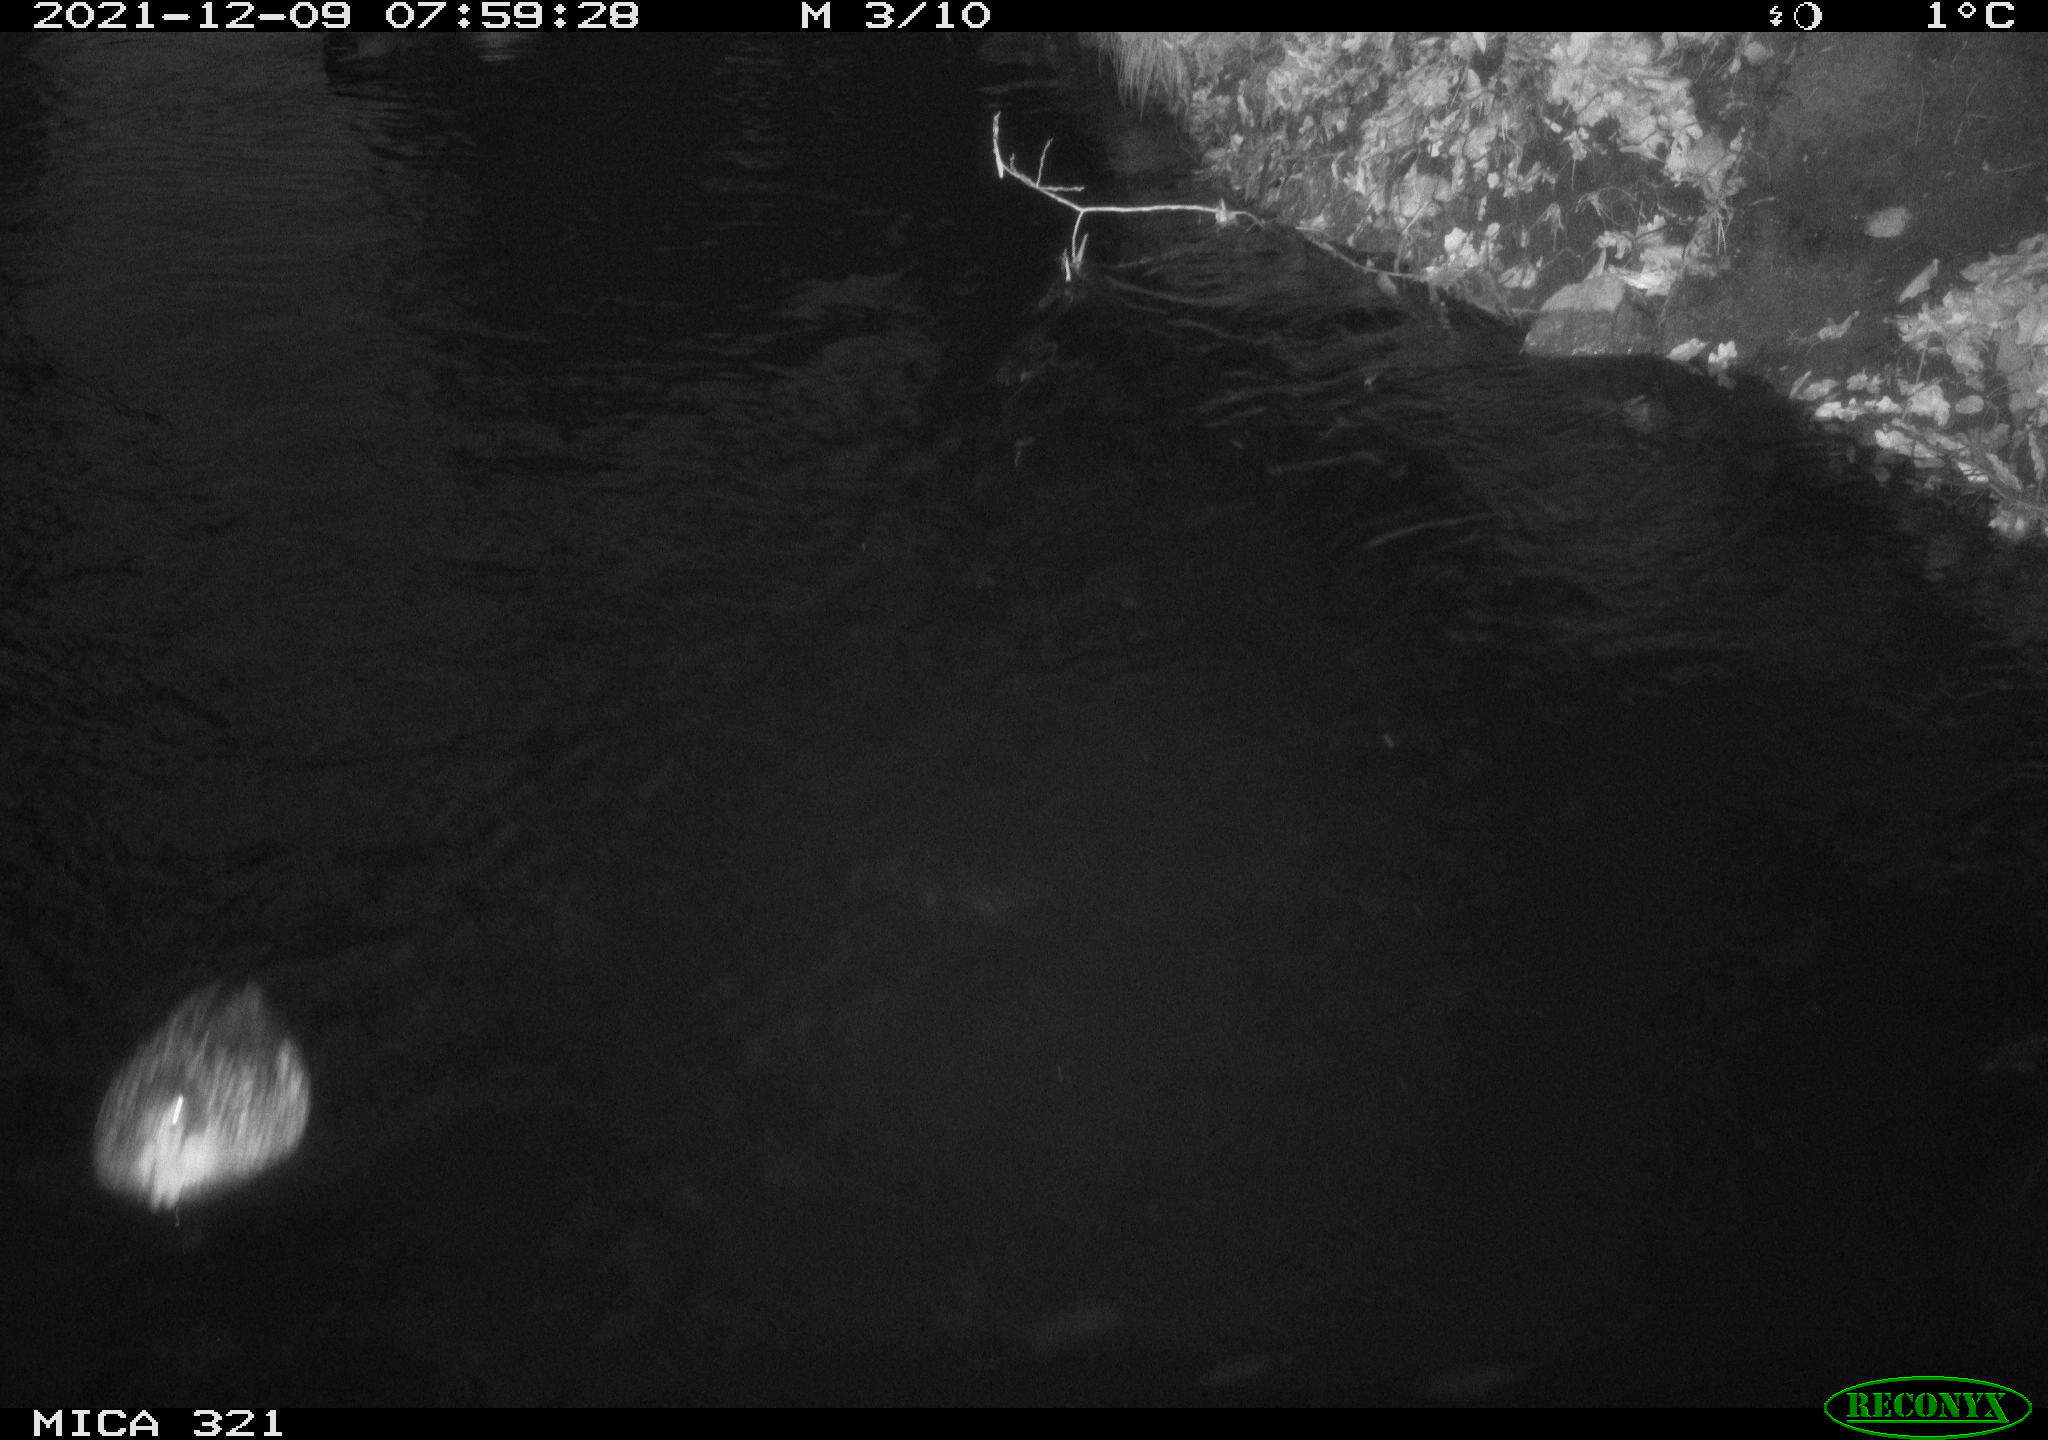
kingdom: Animalia
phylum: Chordata
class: Aves
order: Anseriformes
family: Anatidae
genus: Anas
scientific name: Anas platyrhynchos
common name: Mallard
